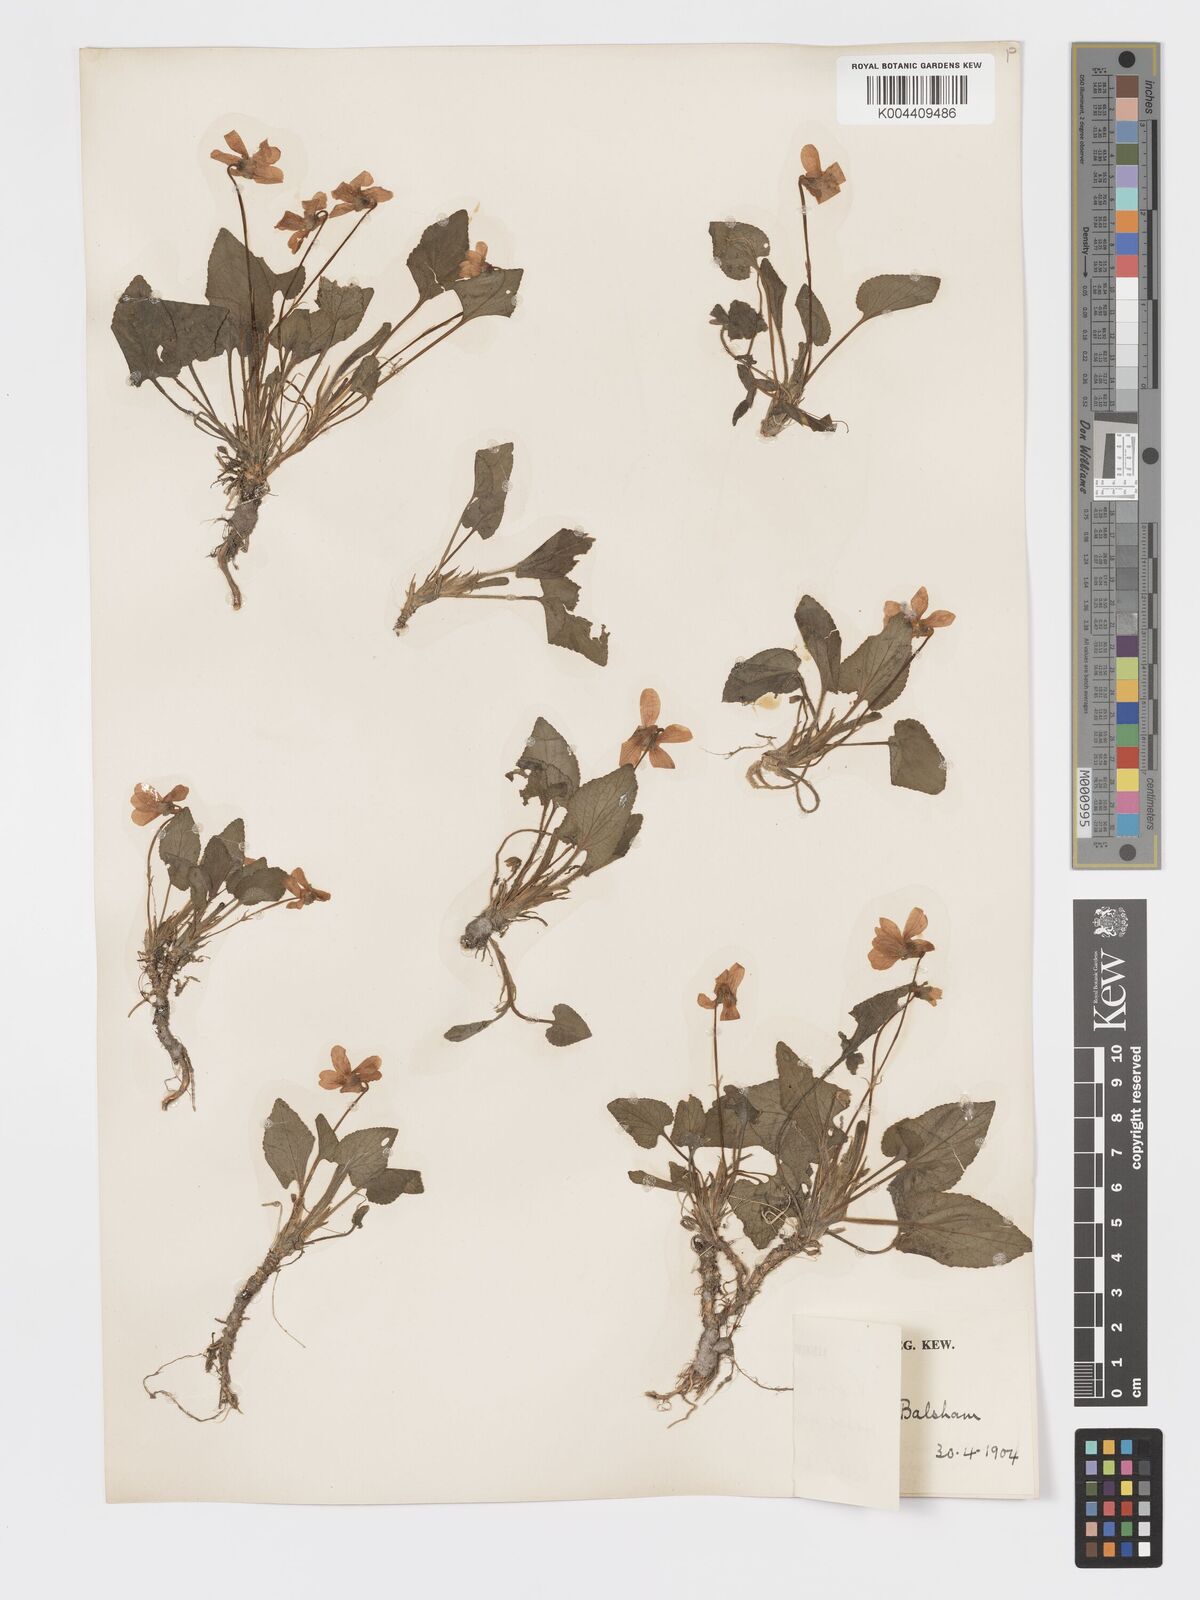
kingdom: Plantae
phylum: Tracheophyta
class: Magnoliopsida
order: Malpighiales
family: Violaceae
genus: Viola
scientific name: Viola
